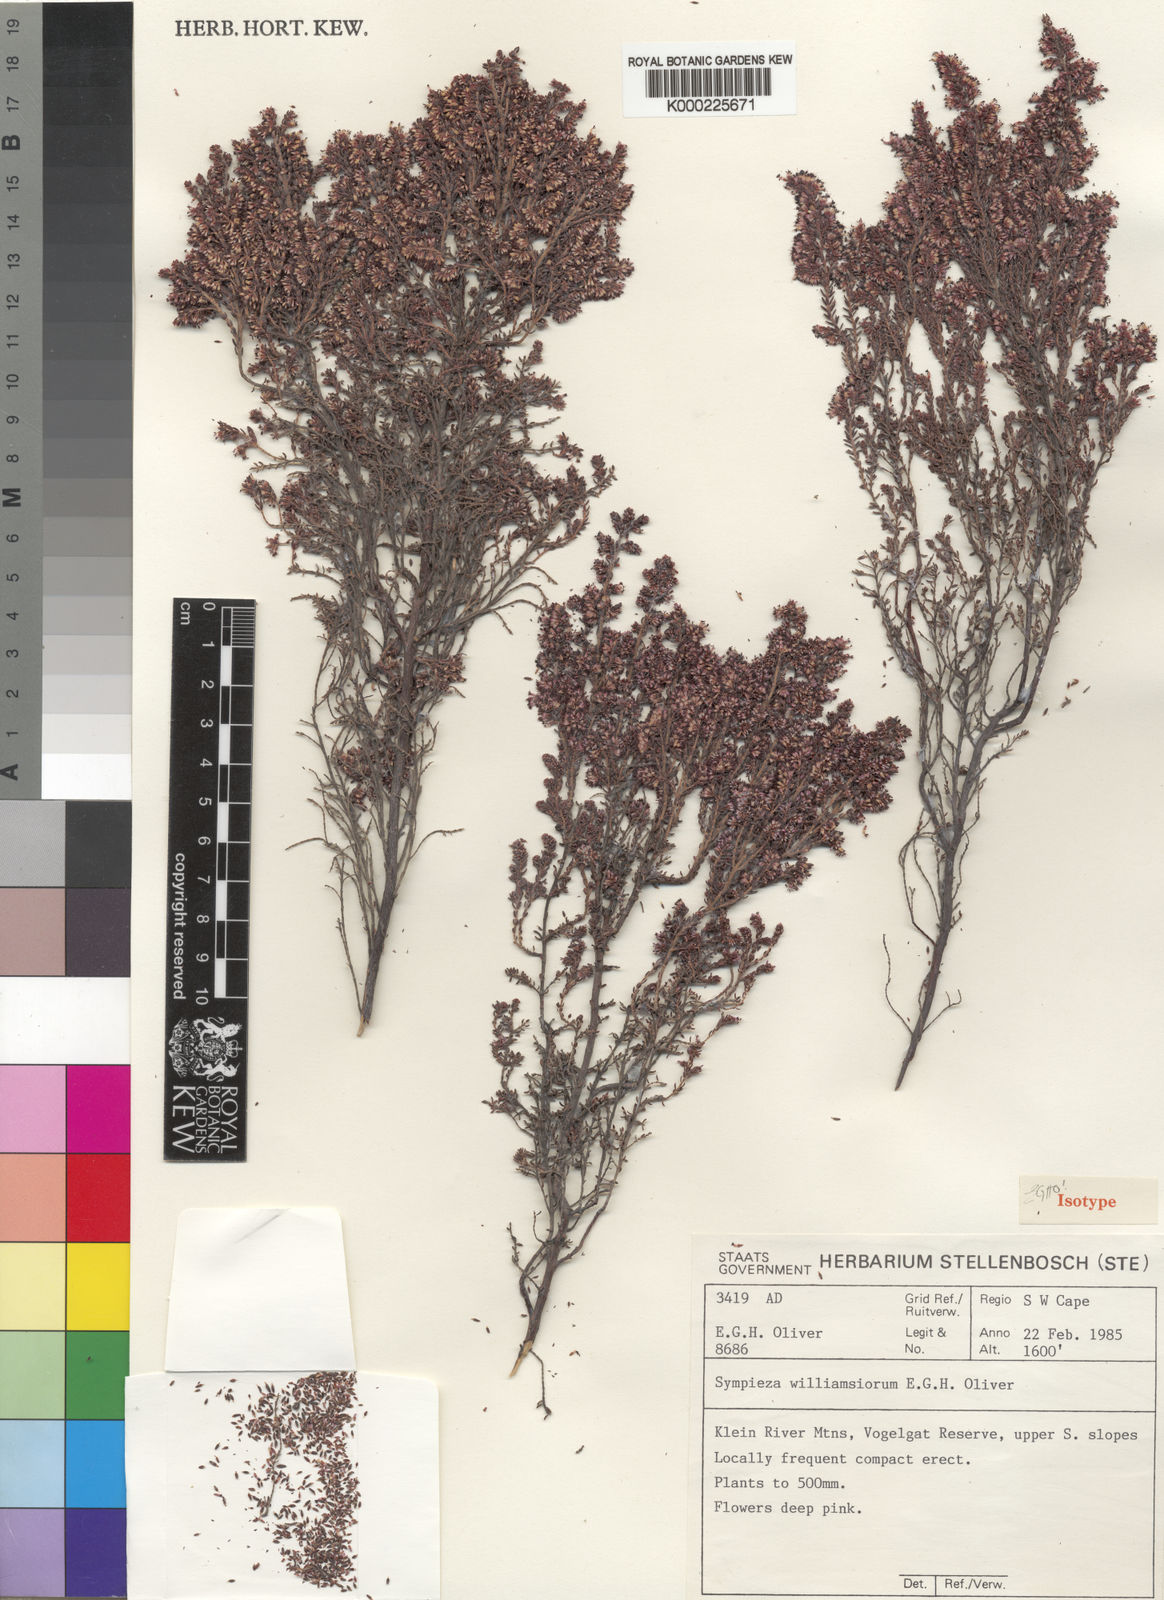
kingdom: Plantae
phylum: Tracheophyta
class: Magnoliopsida
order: Ericales
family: Ericaceae
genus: Erica
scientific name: Erica
